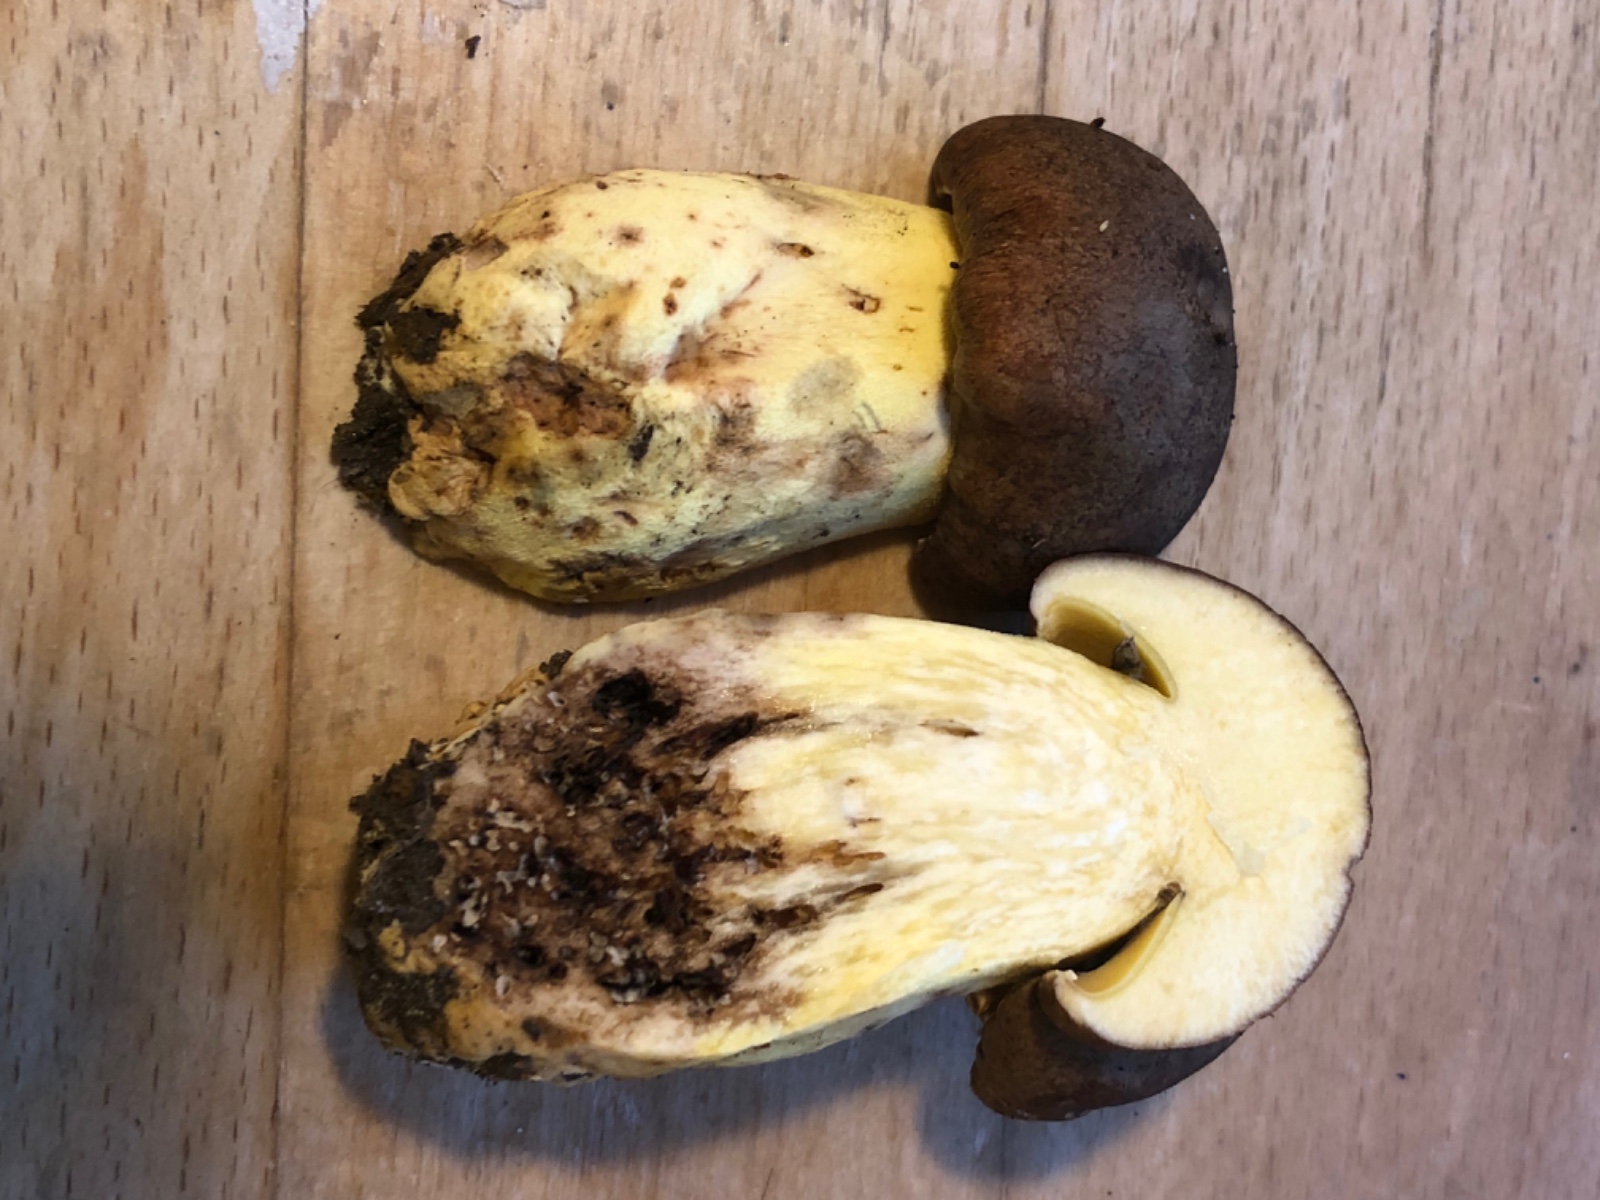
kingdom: Fungi
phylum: Basidiomycota
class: Agaricomycetes
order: Boletales
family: Boletaceae
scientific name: Boletaceae
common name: rørhatfamilien
